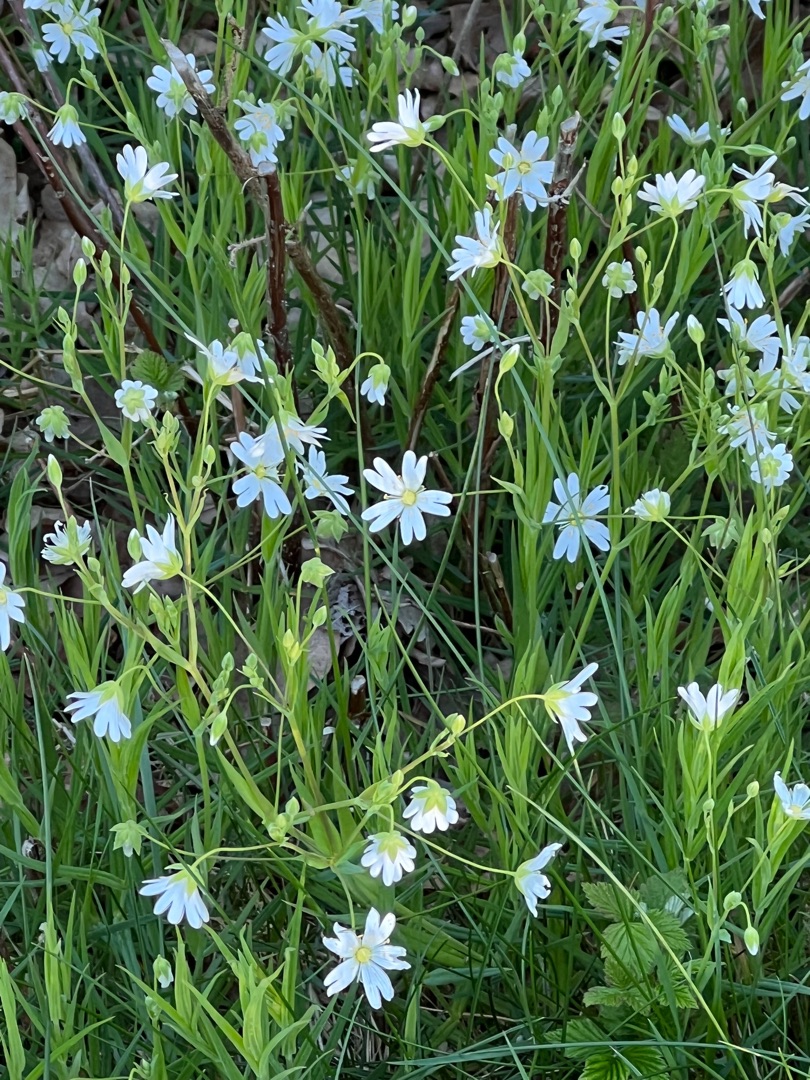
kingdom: Plantae
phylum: Tracheophyta
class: Magnoliopsida
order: Caryophyllales
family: Caryophyllaceae
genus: Rabelera
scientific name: Rabelera holostea
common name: Stor fladstjerne
